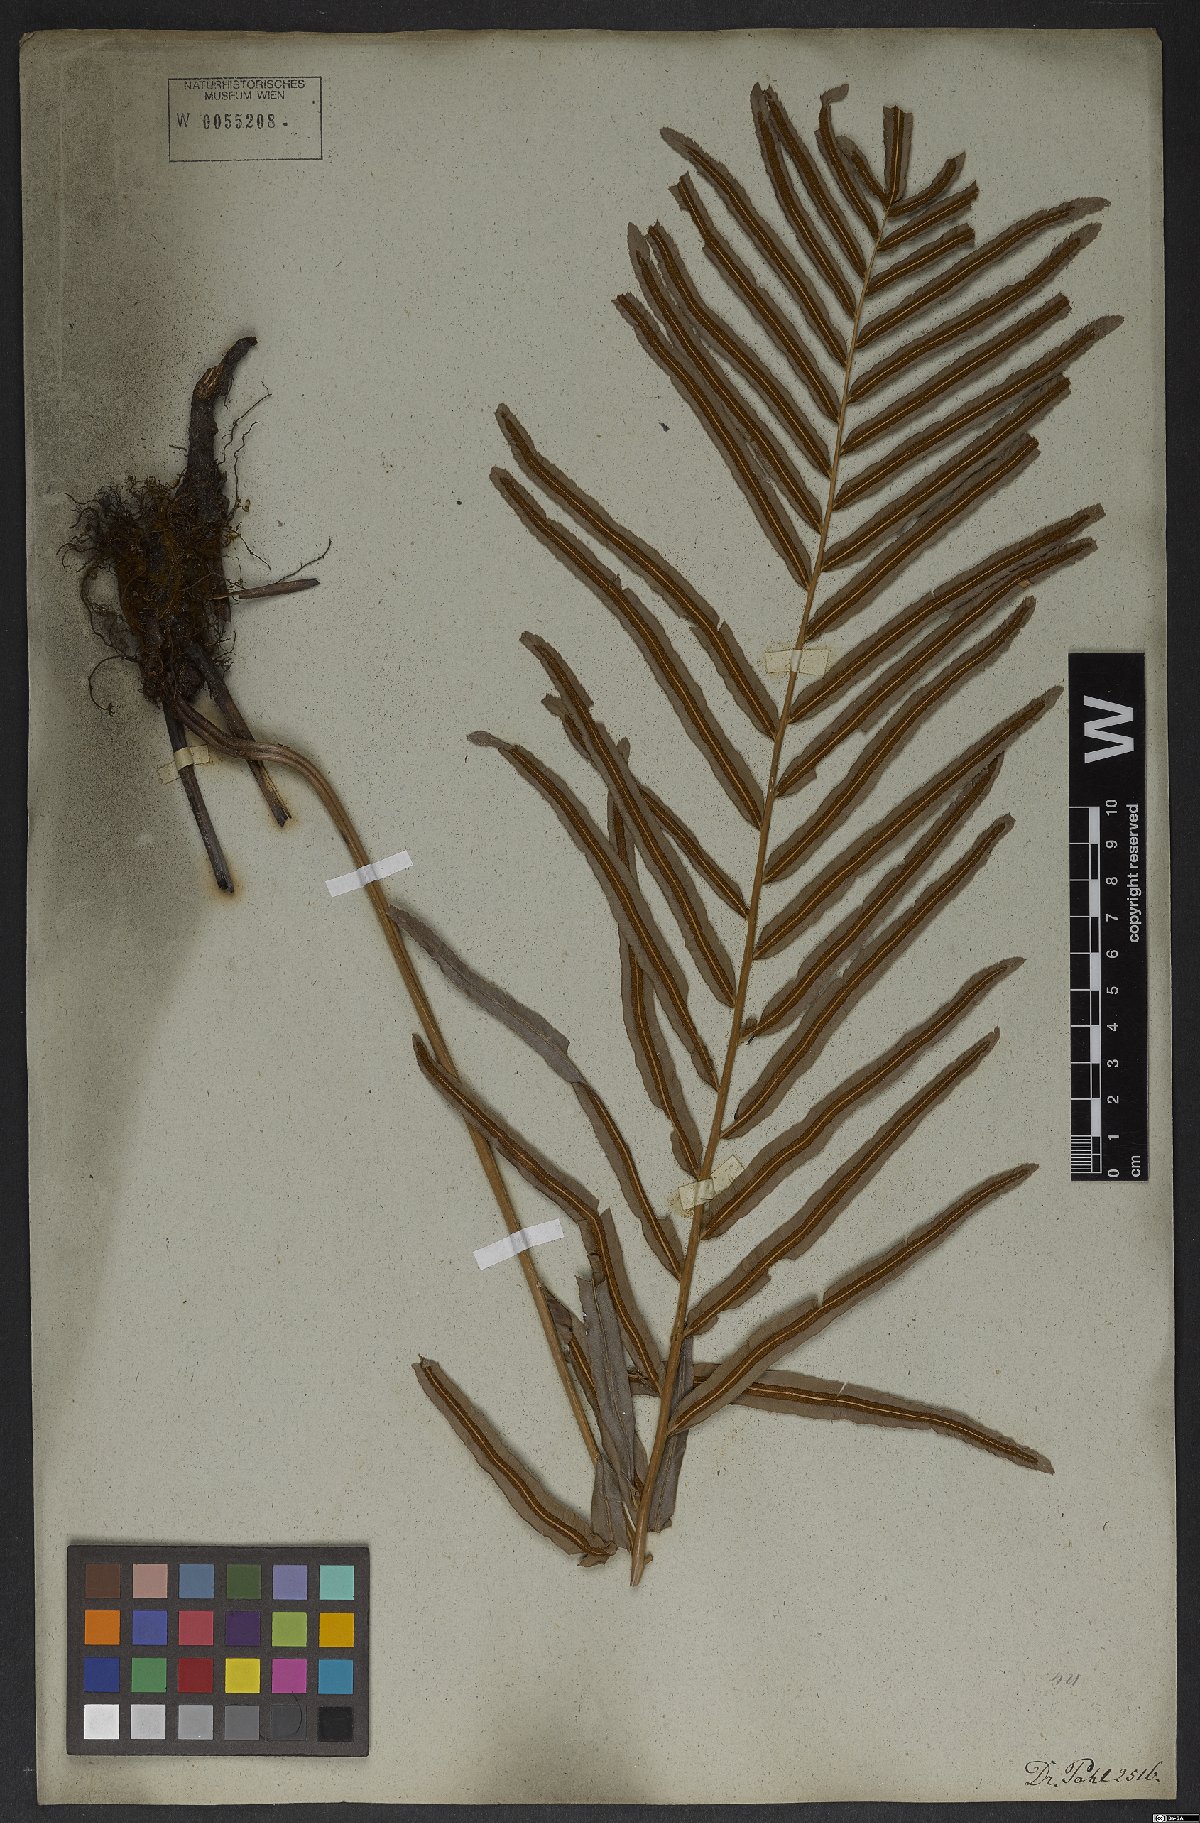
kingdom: Plantae
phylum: Tracheophyta
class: Polypodiopsida
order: Polypodiales
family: Blechnaceae
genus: Telmatoblechnum
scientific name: Telmatoblechnum serrulatum
